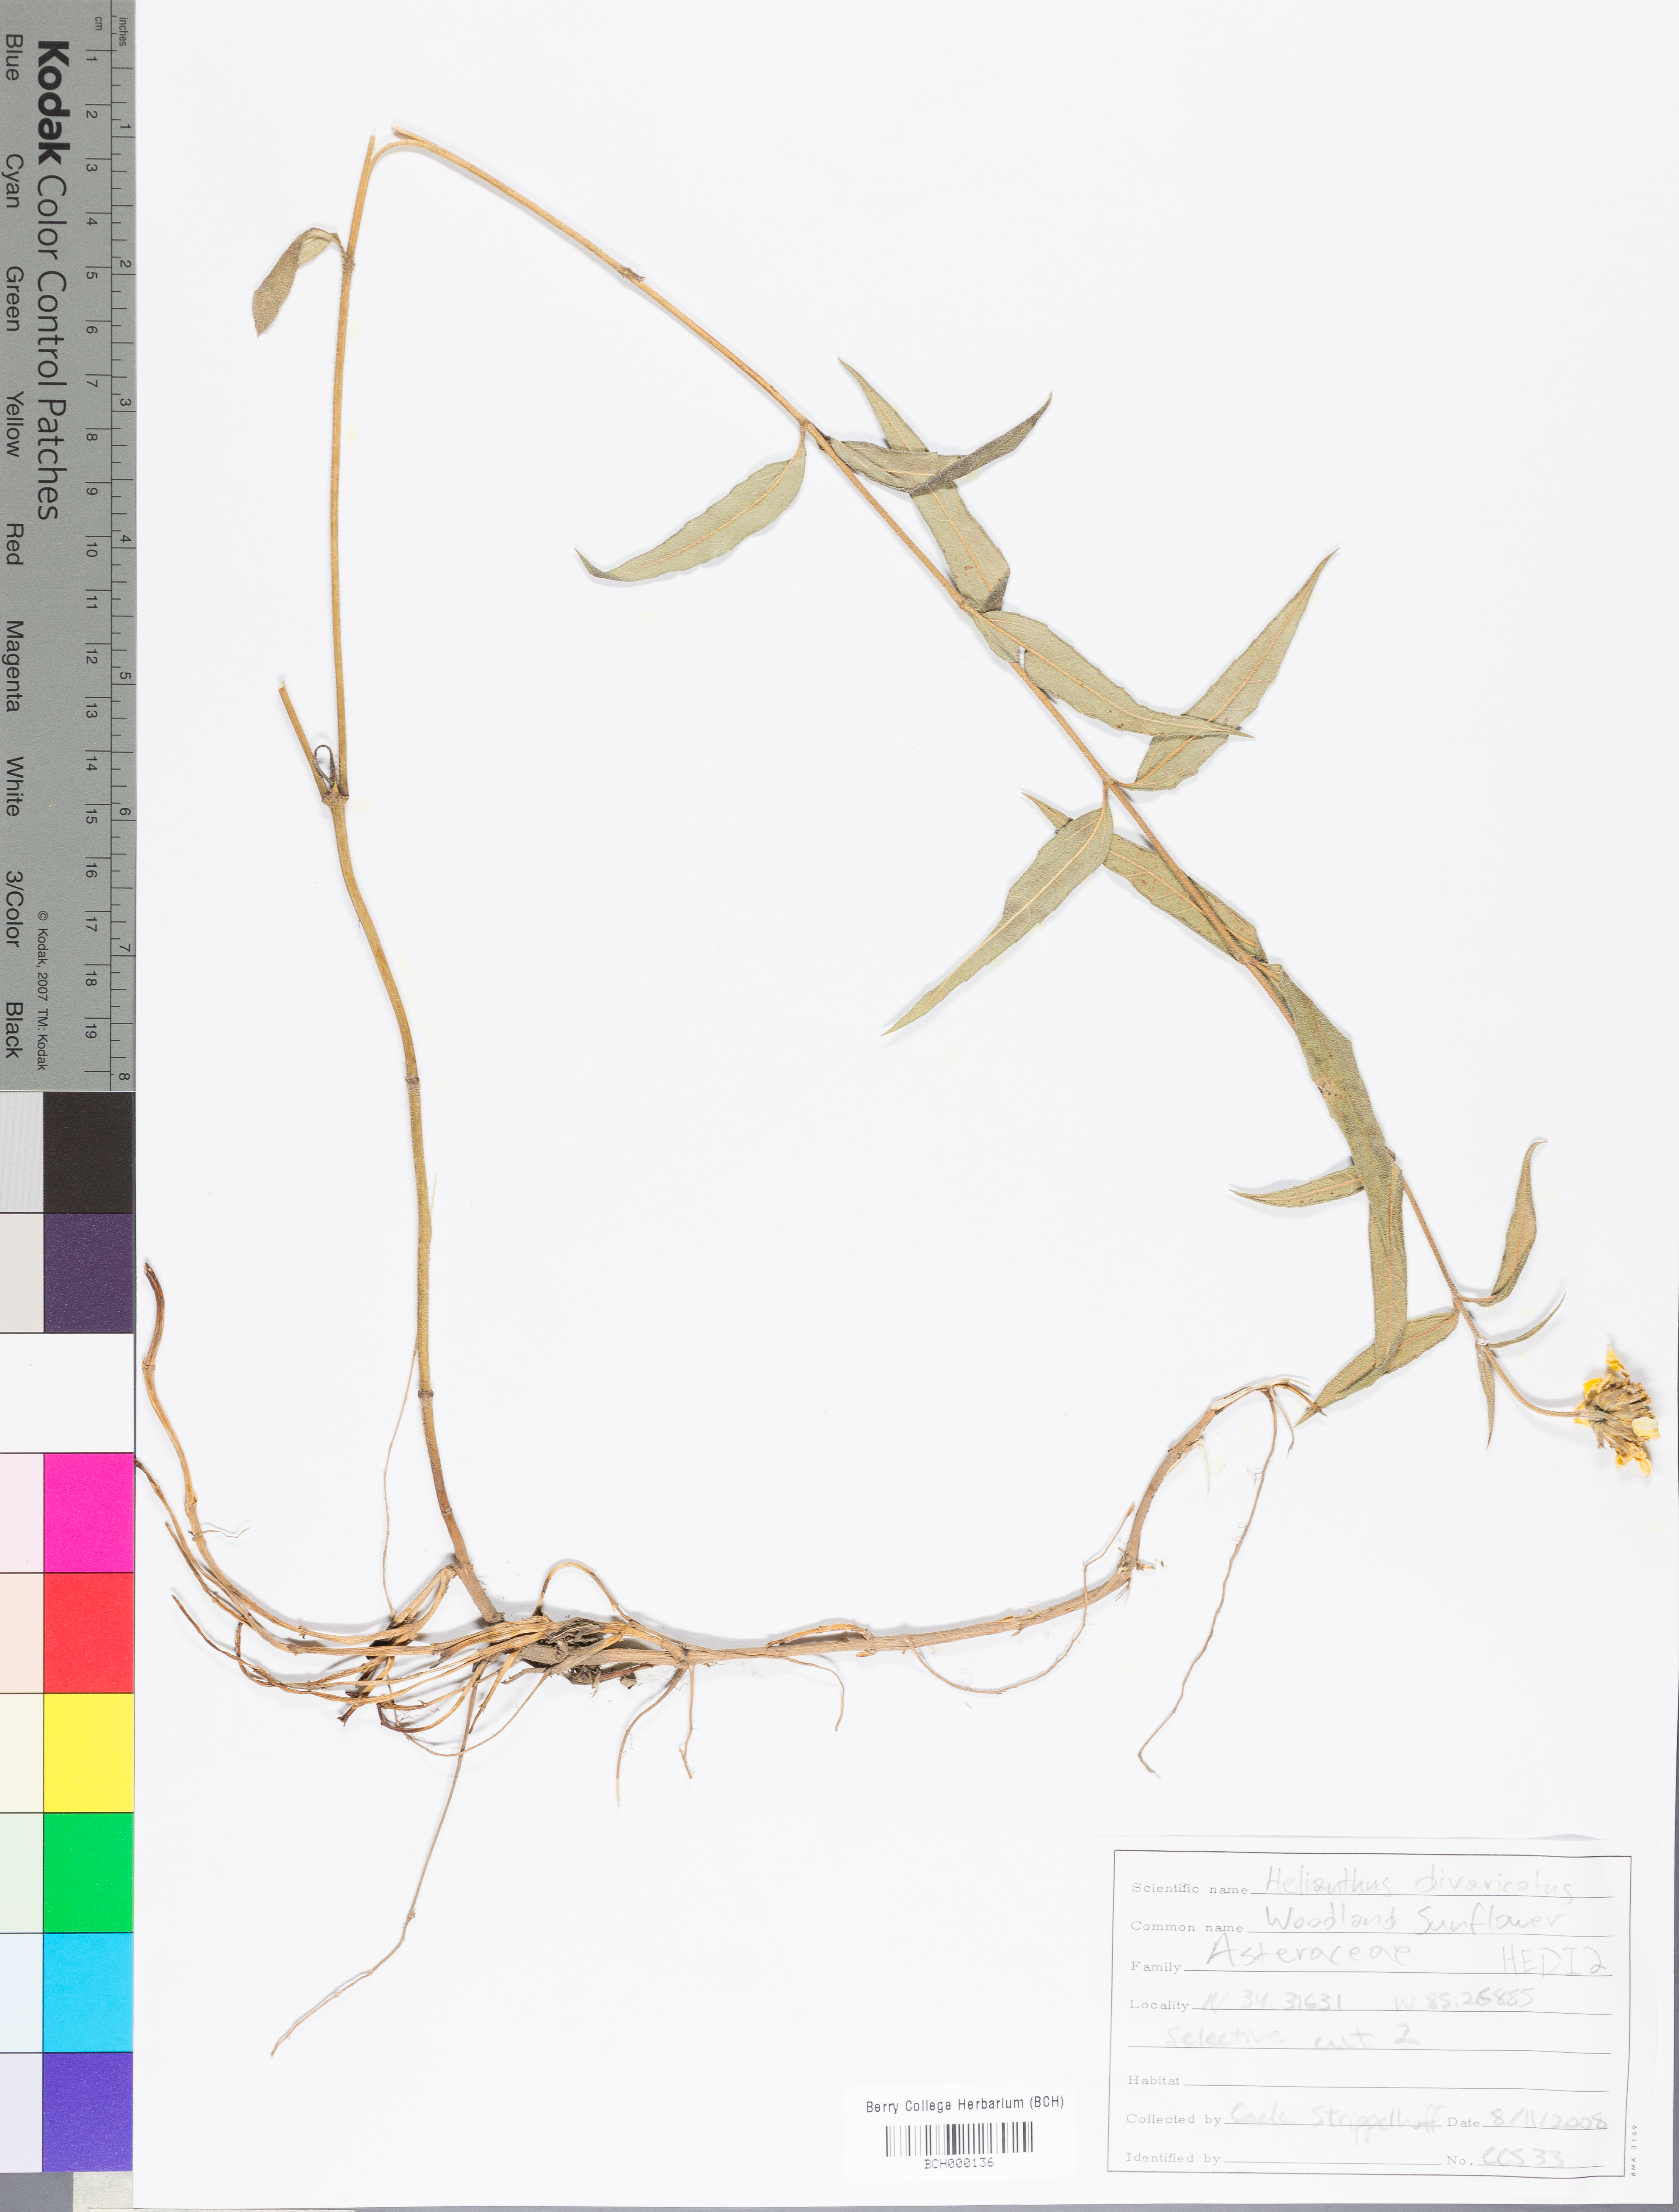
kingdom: Plantae
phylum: Tracheophyta
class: Magnoliopsida
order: Asterales
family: Asteraceae
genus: Helianthus
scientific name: Helianthus divaricatus
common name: Divergent sunflower
